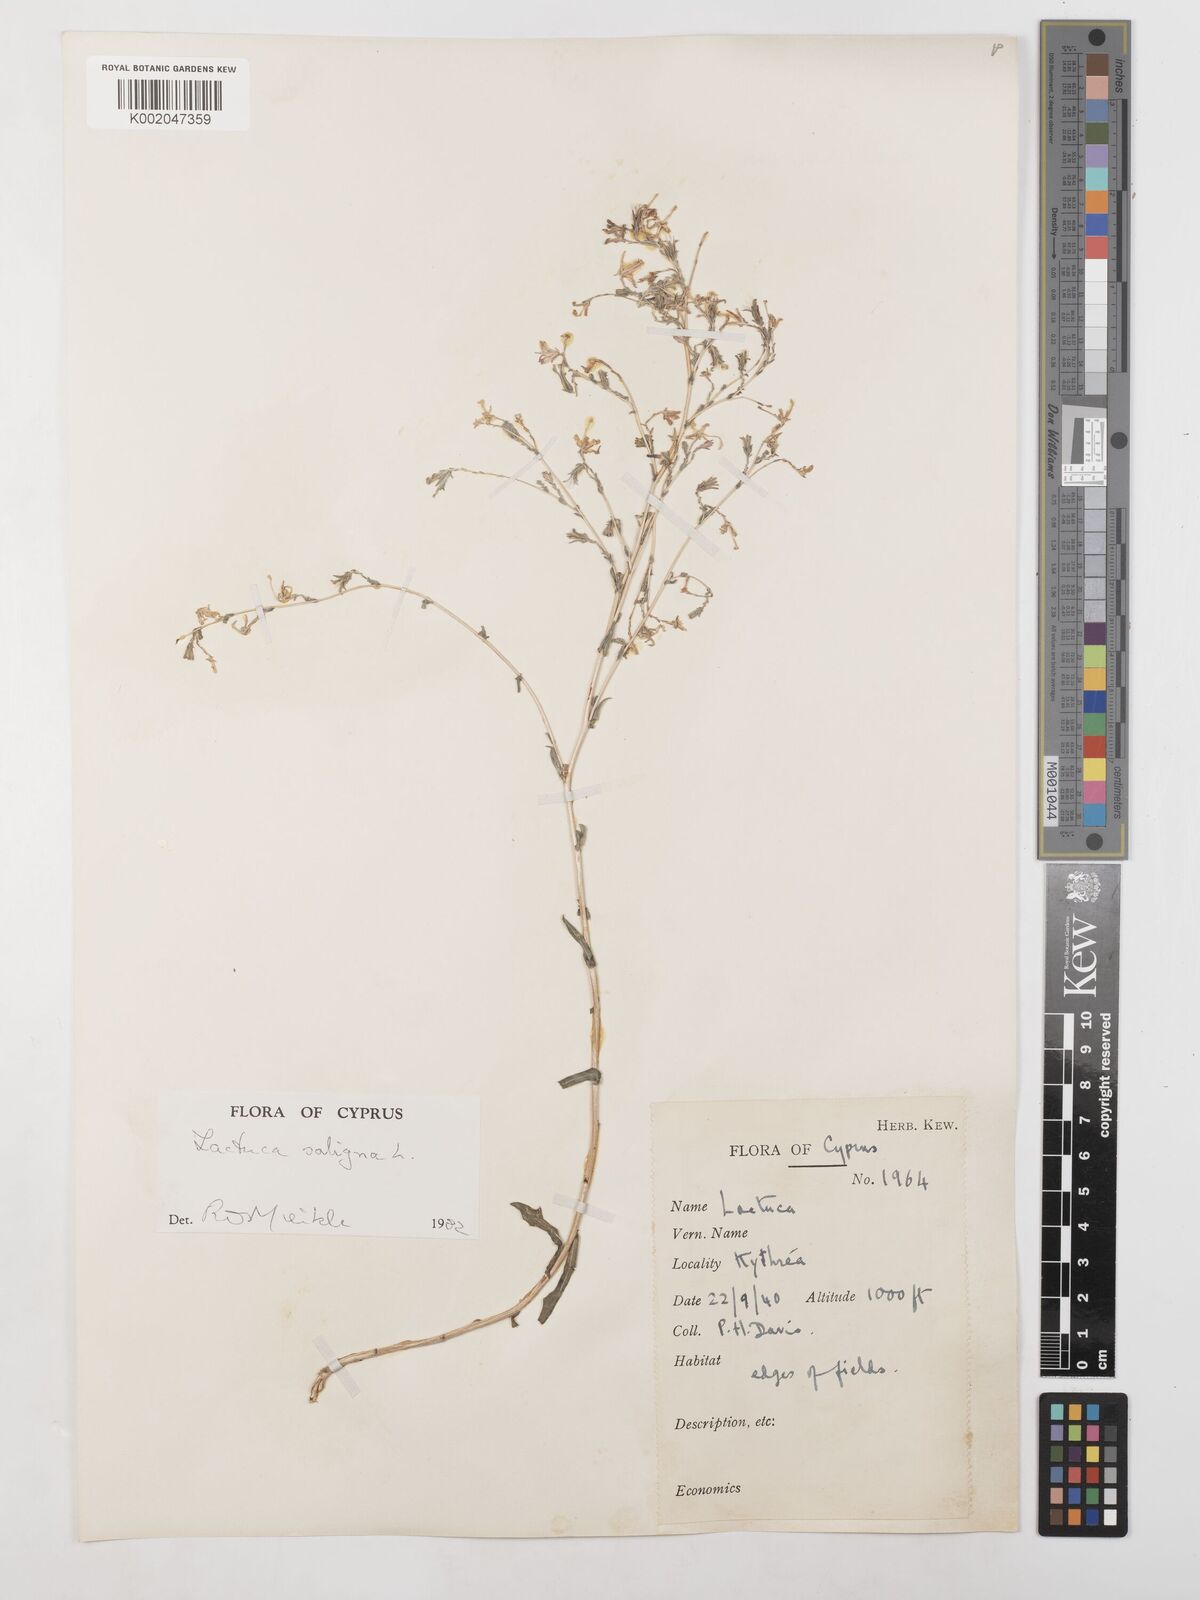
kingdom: Plantae
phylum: Tracheophyta
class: Magnoliopsida
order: Asterales
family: Asteraceae
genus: Lactuca
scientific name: Lactuca saligna
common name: Wild lettuce
